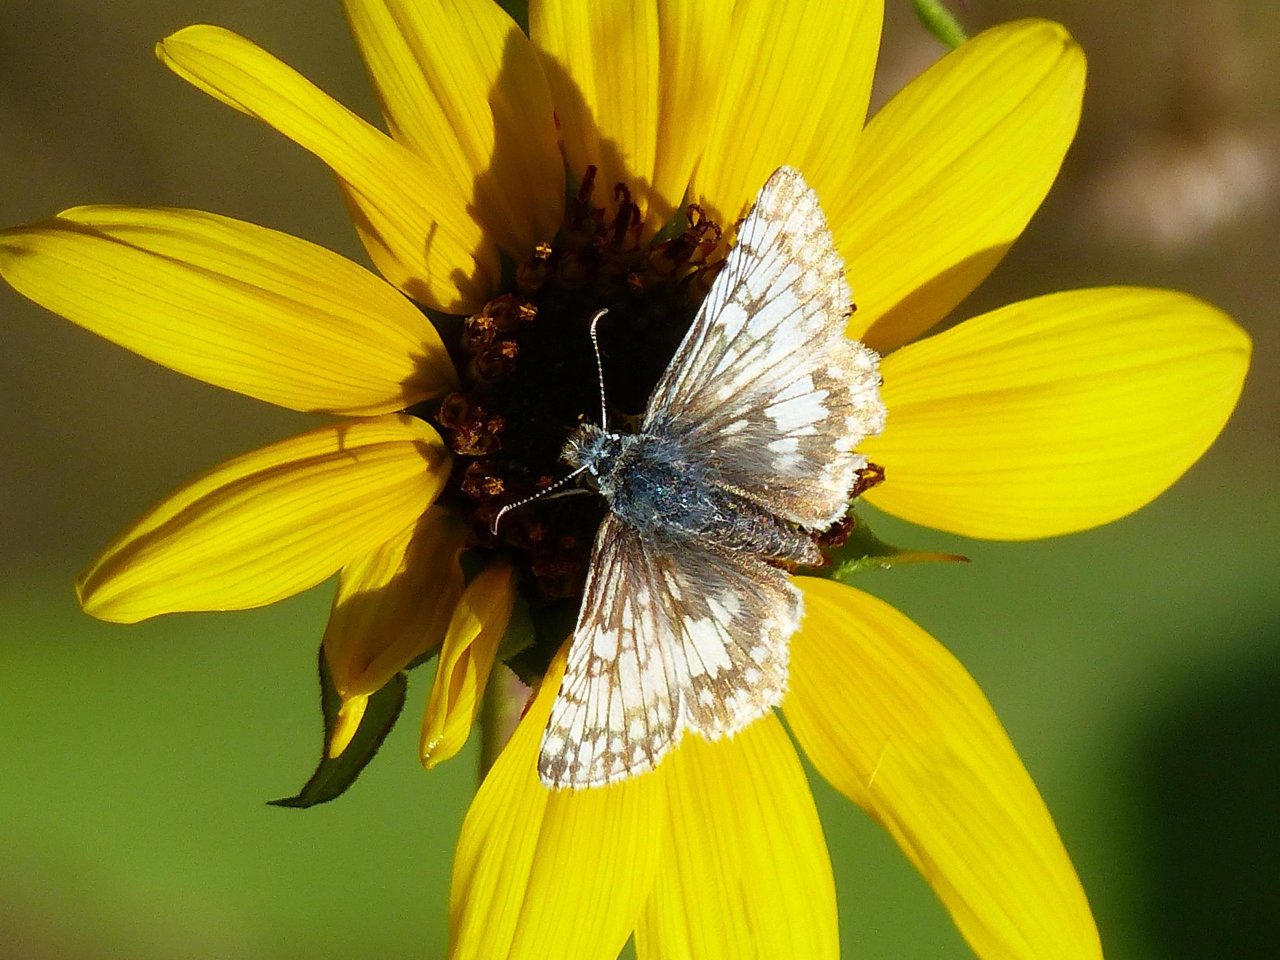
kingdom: Animalia
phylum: Arthropoda
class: Insecta
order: Lepidoptera
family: Hesperiidae
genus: Pyrgus
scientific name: Pyrgus communis
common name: White Checkered-Skipper
